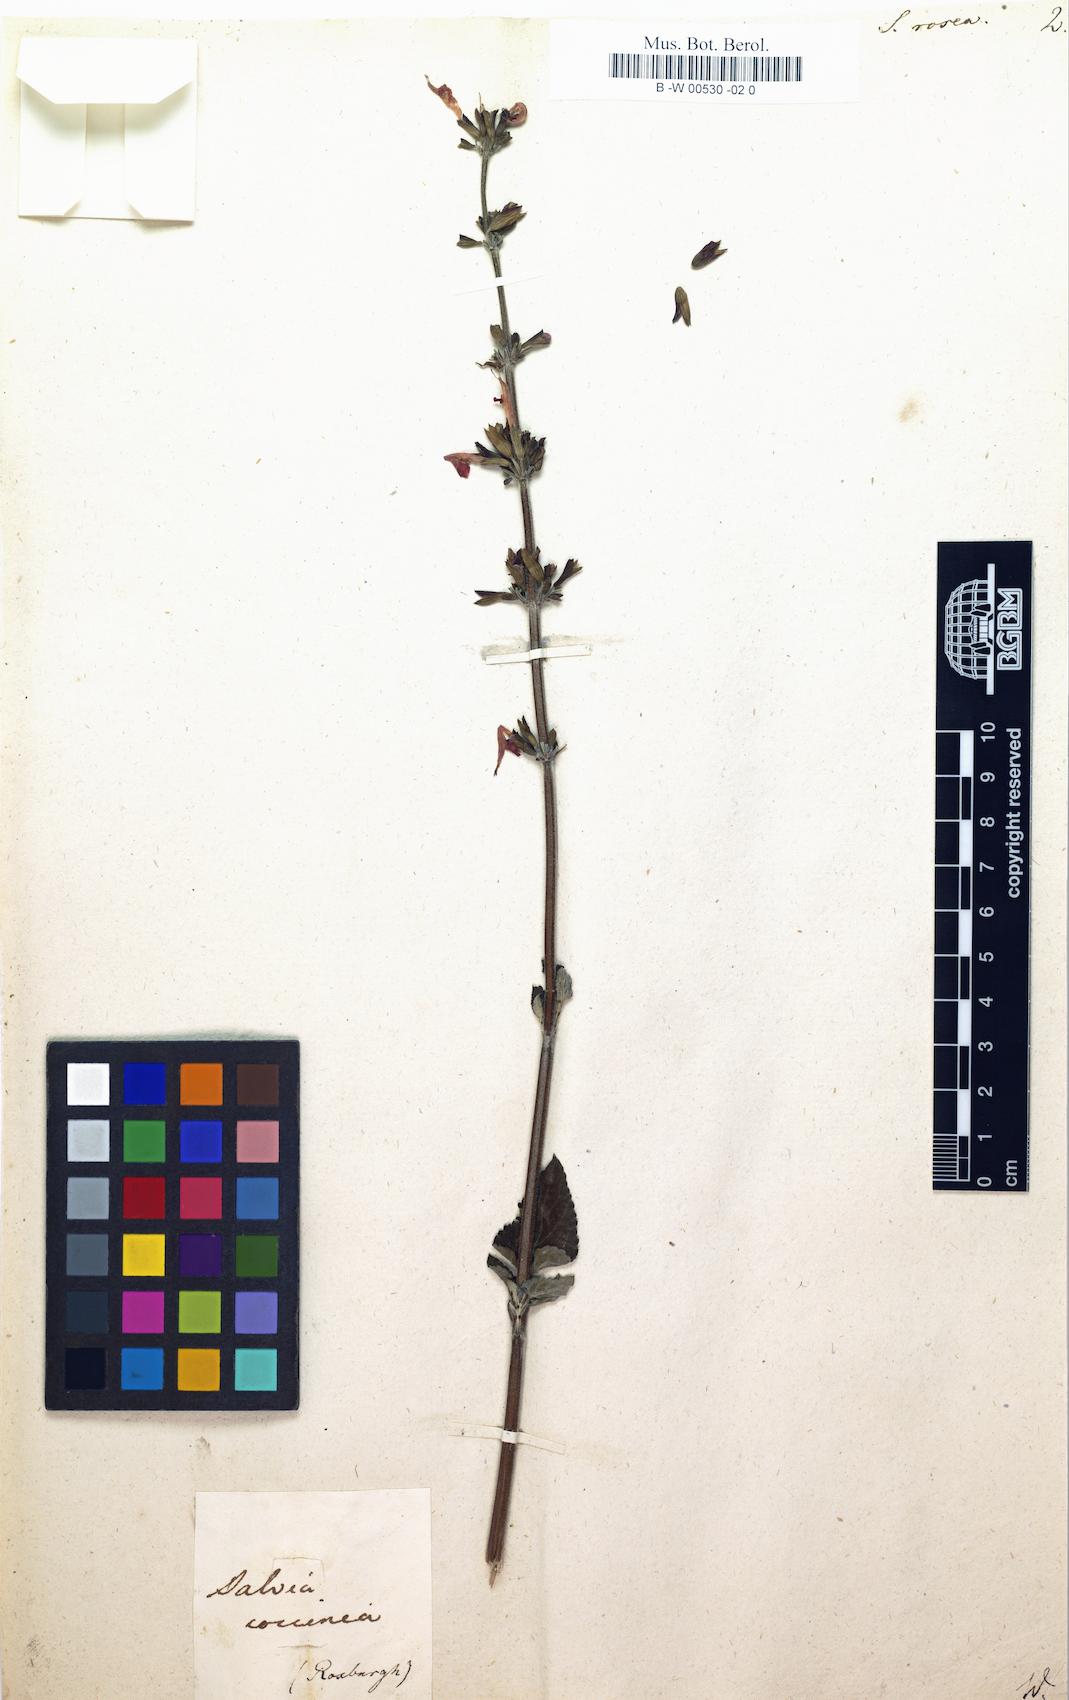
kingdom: Plantae
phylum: Tracheophyta
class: Magnoliopsida
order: Lamiales
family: Lamiaceae
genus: Salvia
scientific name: Salvia coccinea
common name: Blood sage
